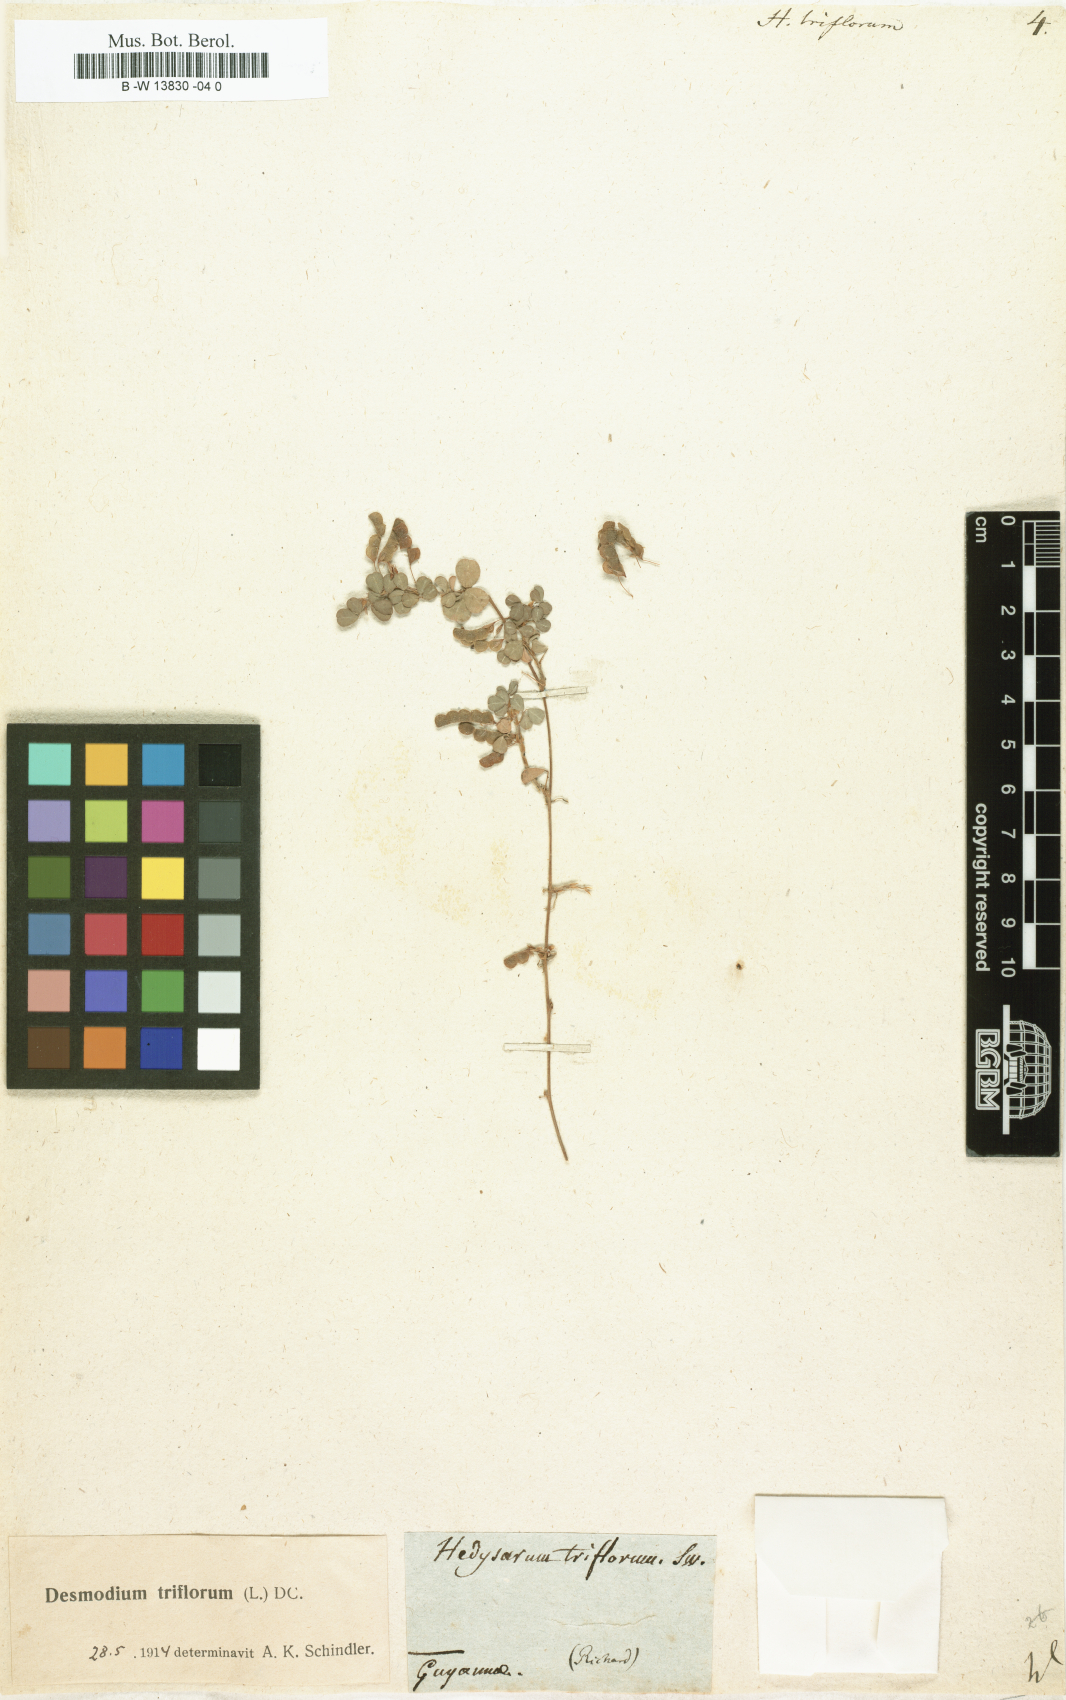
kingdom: Plantae
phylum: Tracheophyta
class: Magnoliopsida
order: Fabales
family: Fabaceae
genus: Grona
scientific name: Grona triflora
